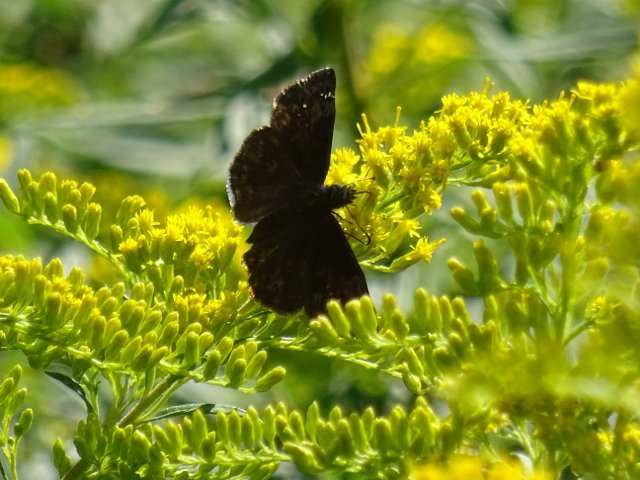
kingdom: Animalia
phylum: Arthropoda
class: Insecta
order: Lepidoptera
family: Hesperiidae
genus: Gesta
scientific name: Gesta
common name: Wild Indigo Duskywing
